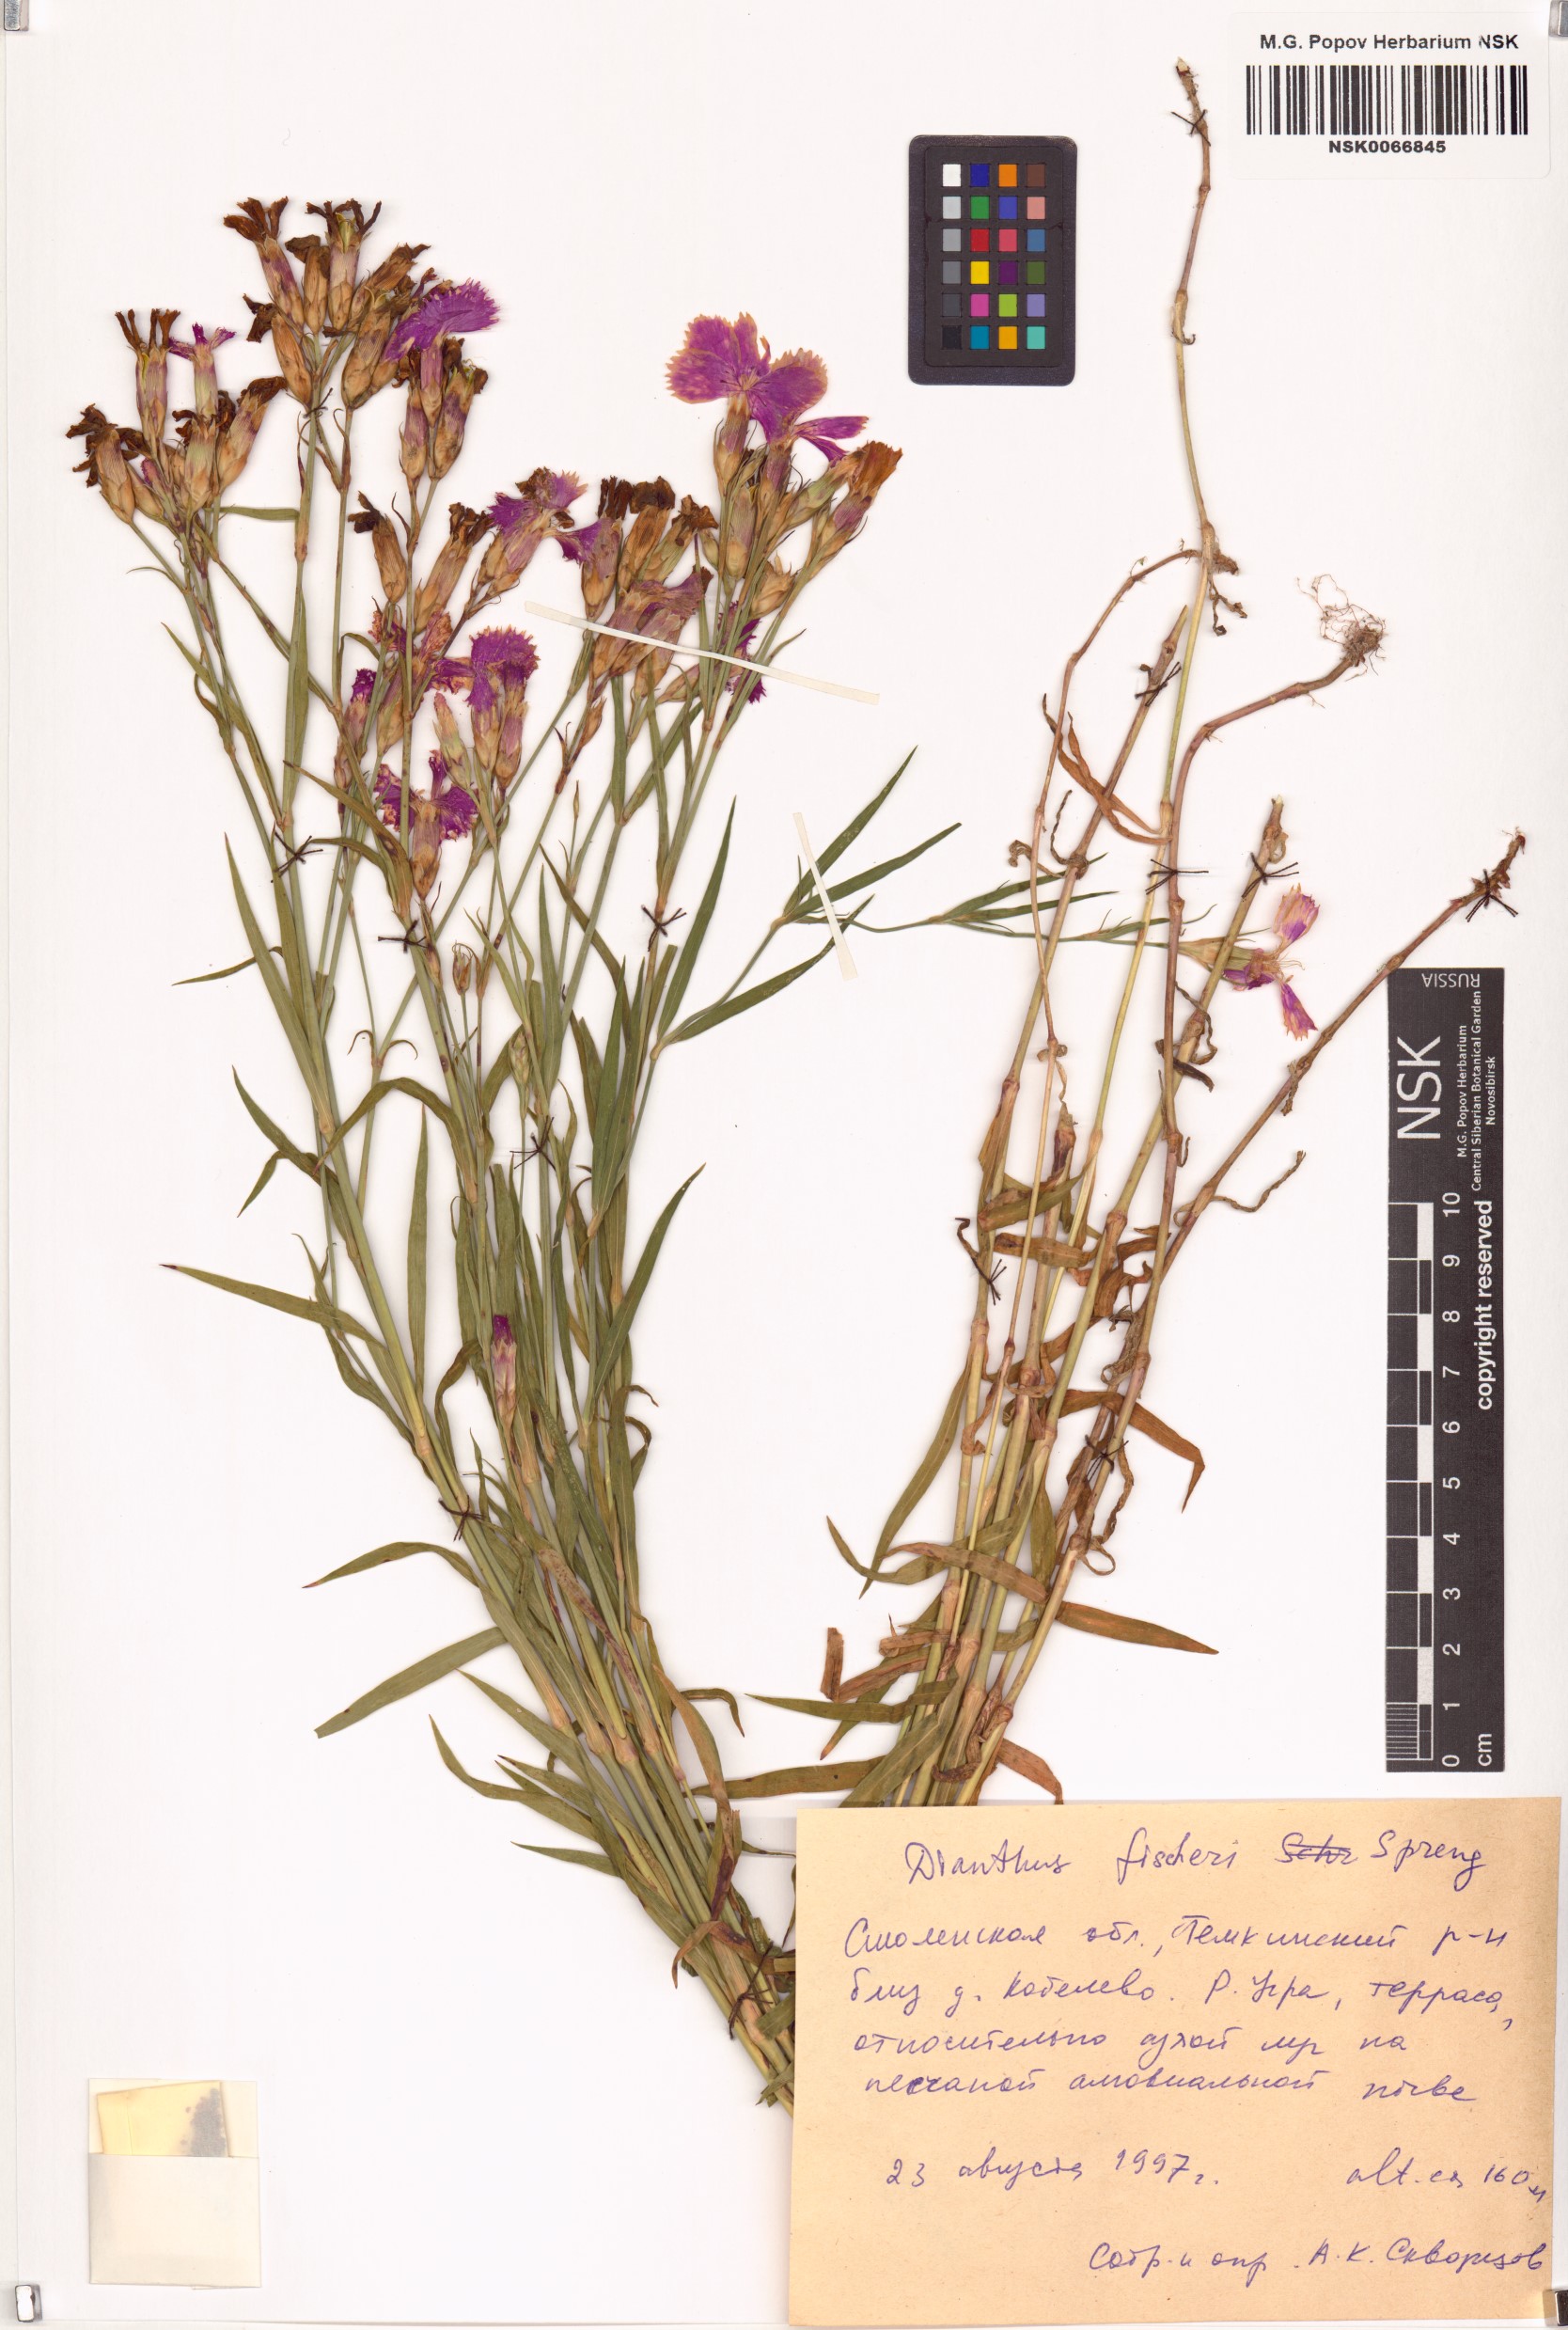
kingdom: Plantae
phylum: Tracheophyta
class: Magnoliopsida
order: Caryophyllales
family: Caryophyllaceae
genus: Dianthus
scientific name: Dianthus chinensis
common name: Rainbow pink
